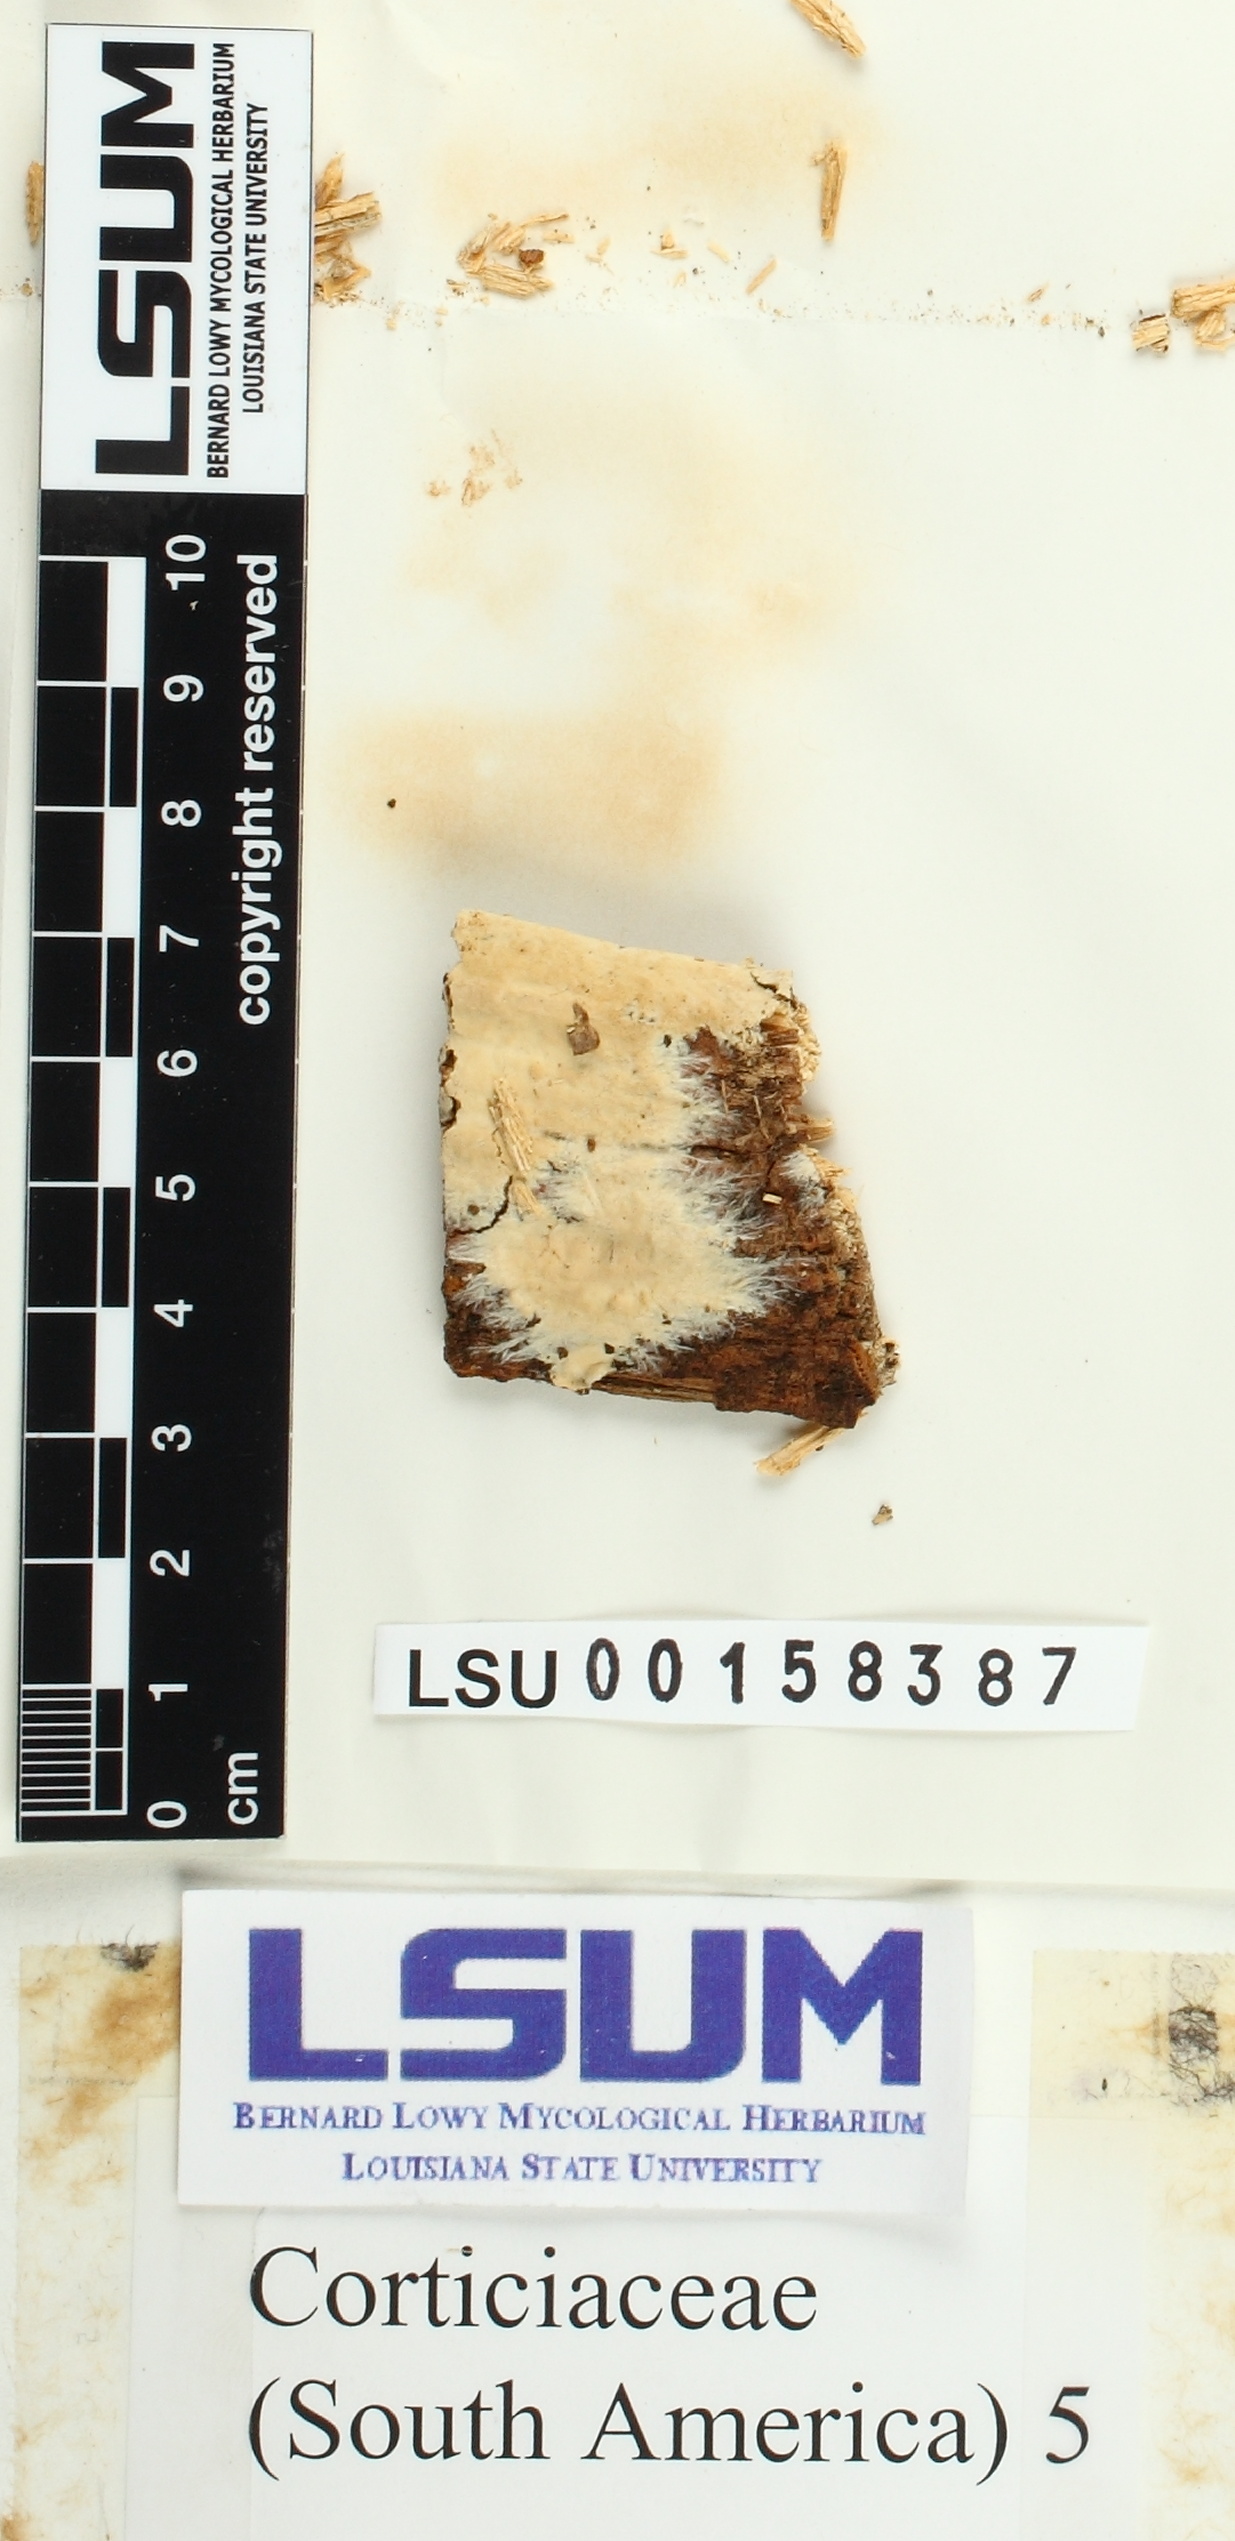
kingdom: Fungi
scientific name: Fungi
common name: Fungi
